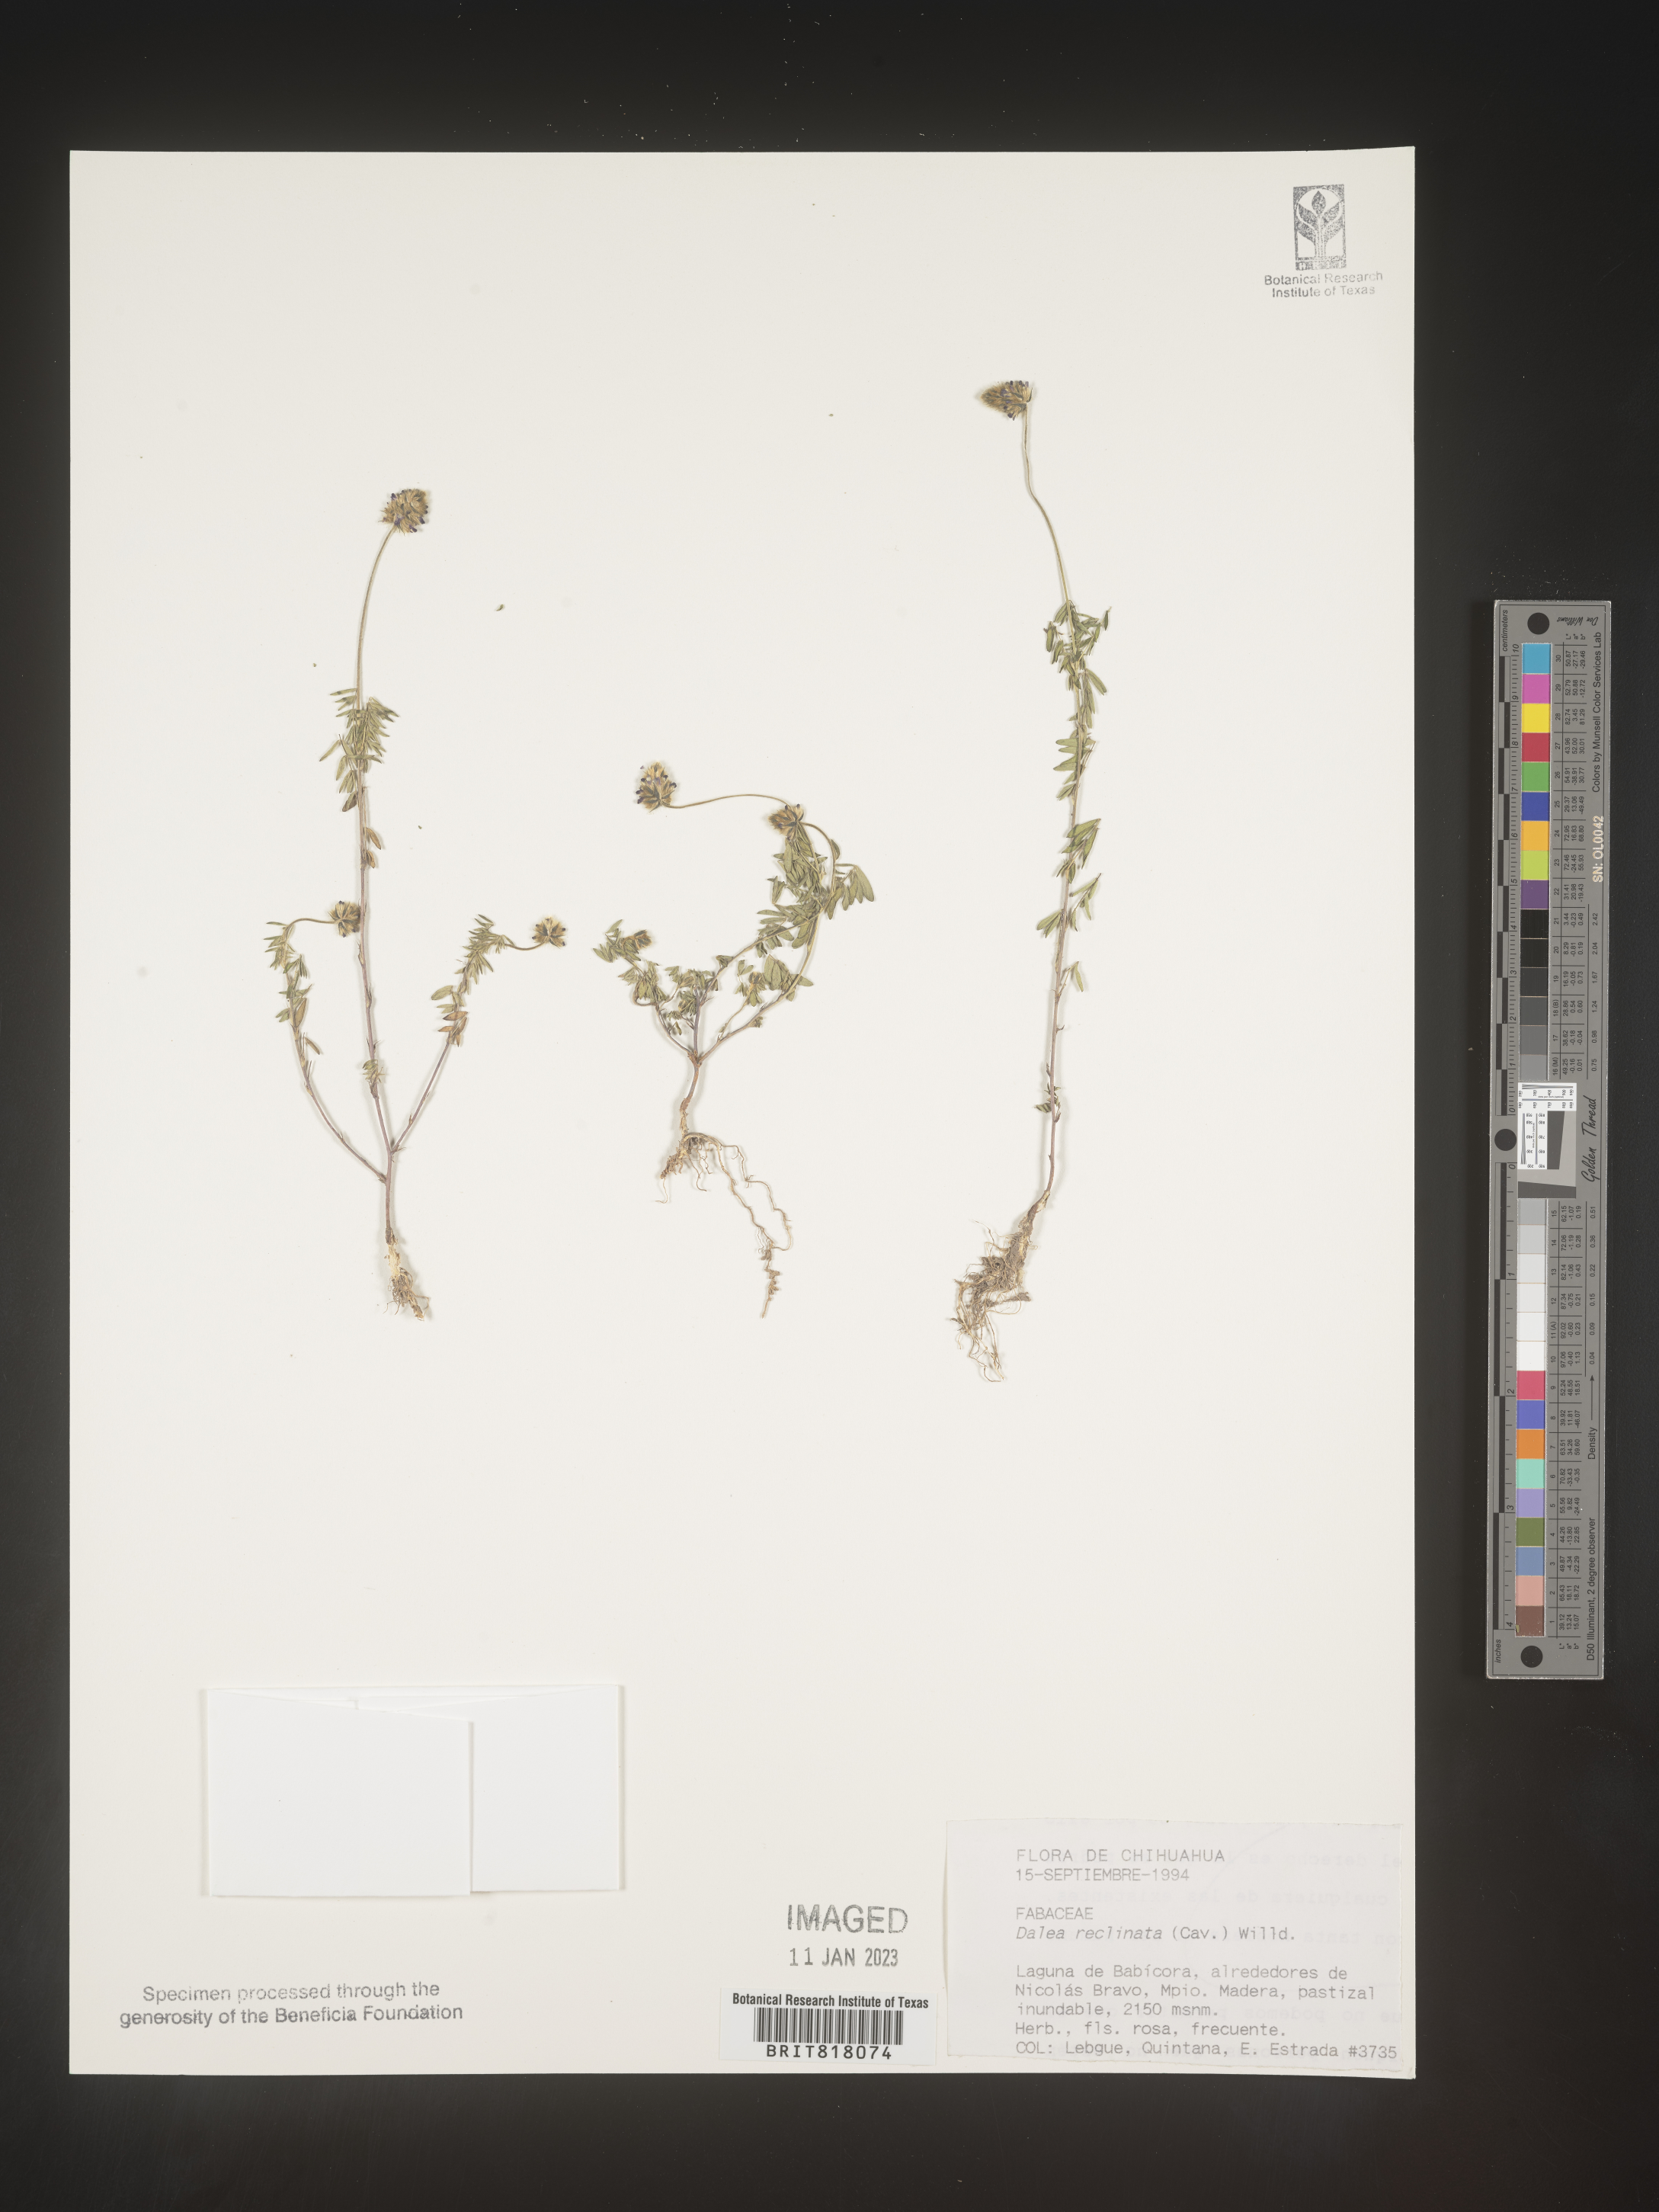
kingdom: Plantae
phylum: Tracheophyta
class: Magnoliopsida
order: Fabales
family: Fabaceae
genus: Dalea
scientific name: Dalea
